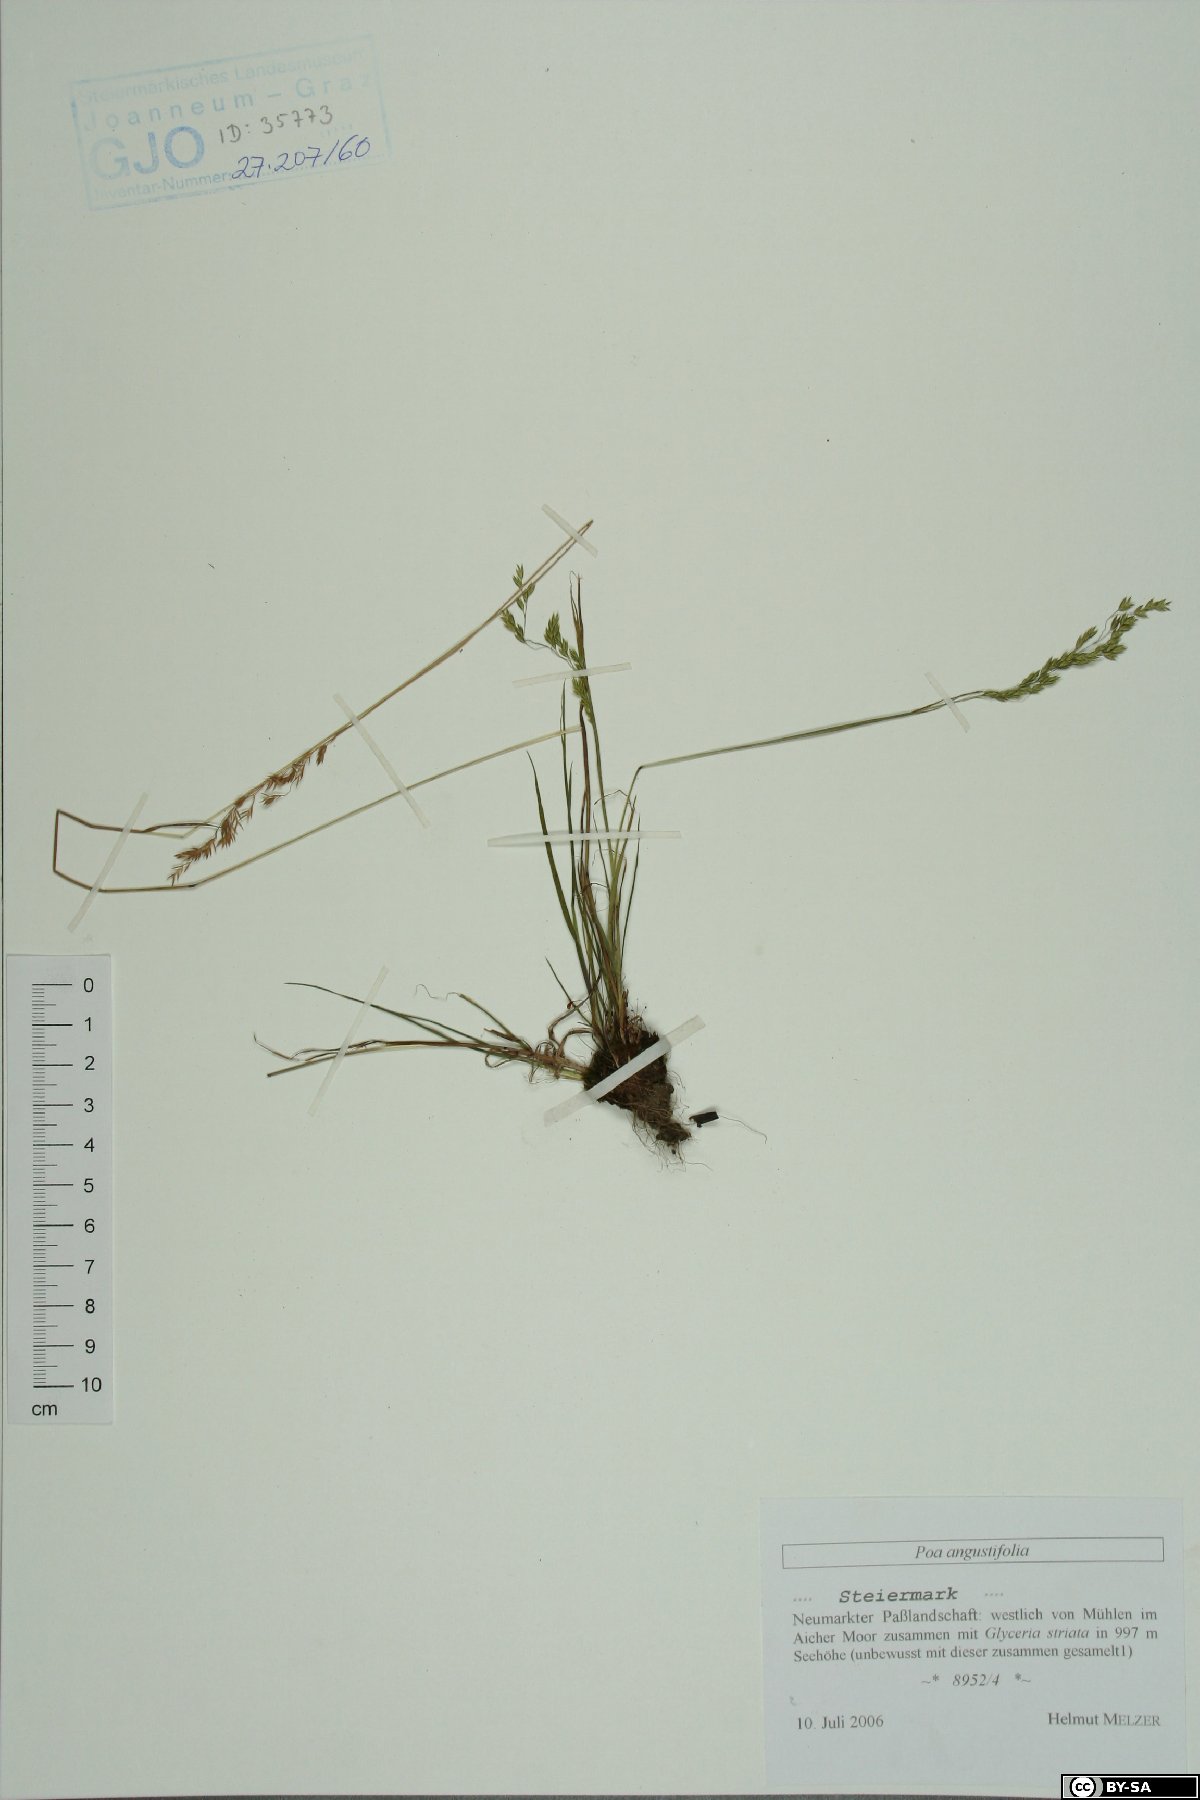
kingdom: Plantae
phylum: Tracheophyta
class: Liliopsida
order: Poales
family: Poaceae
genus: Poa
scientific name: Poa angustifolia
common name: Narrow-leaved meadow-grass
